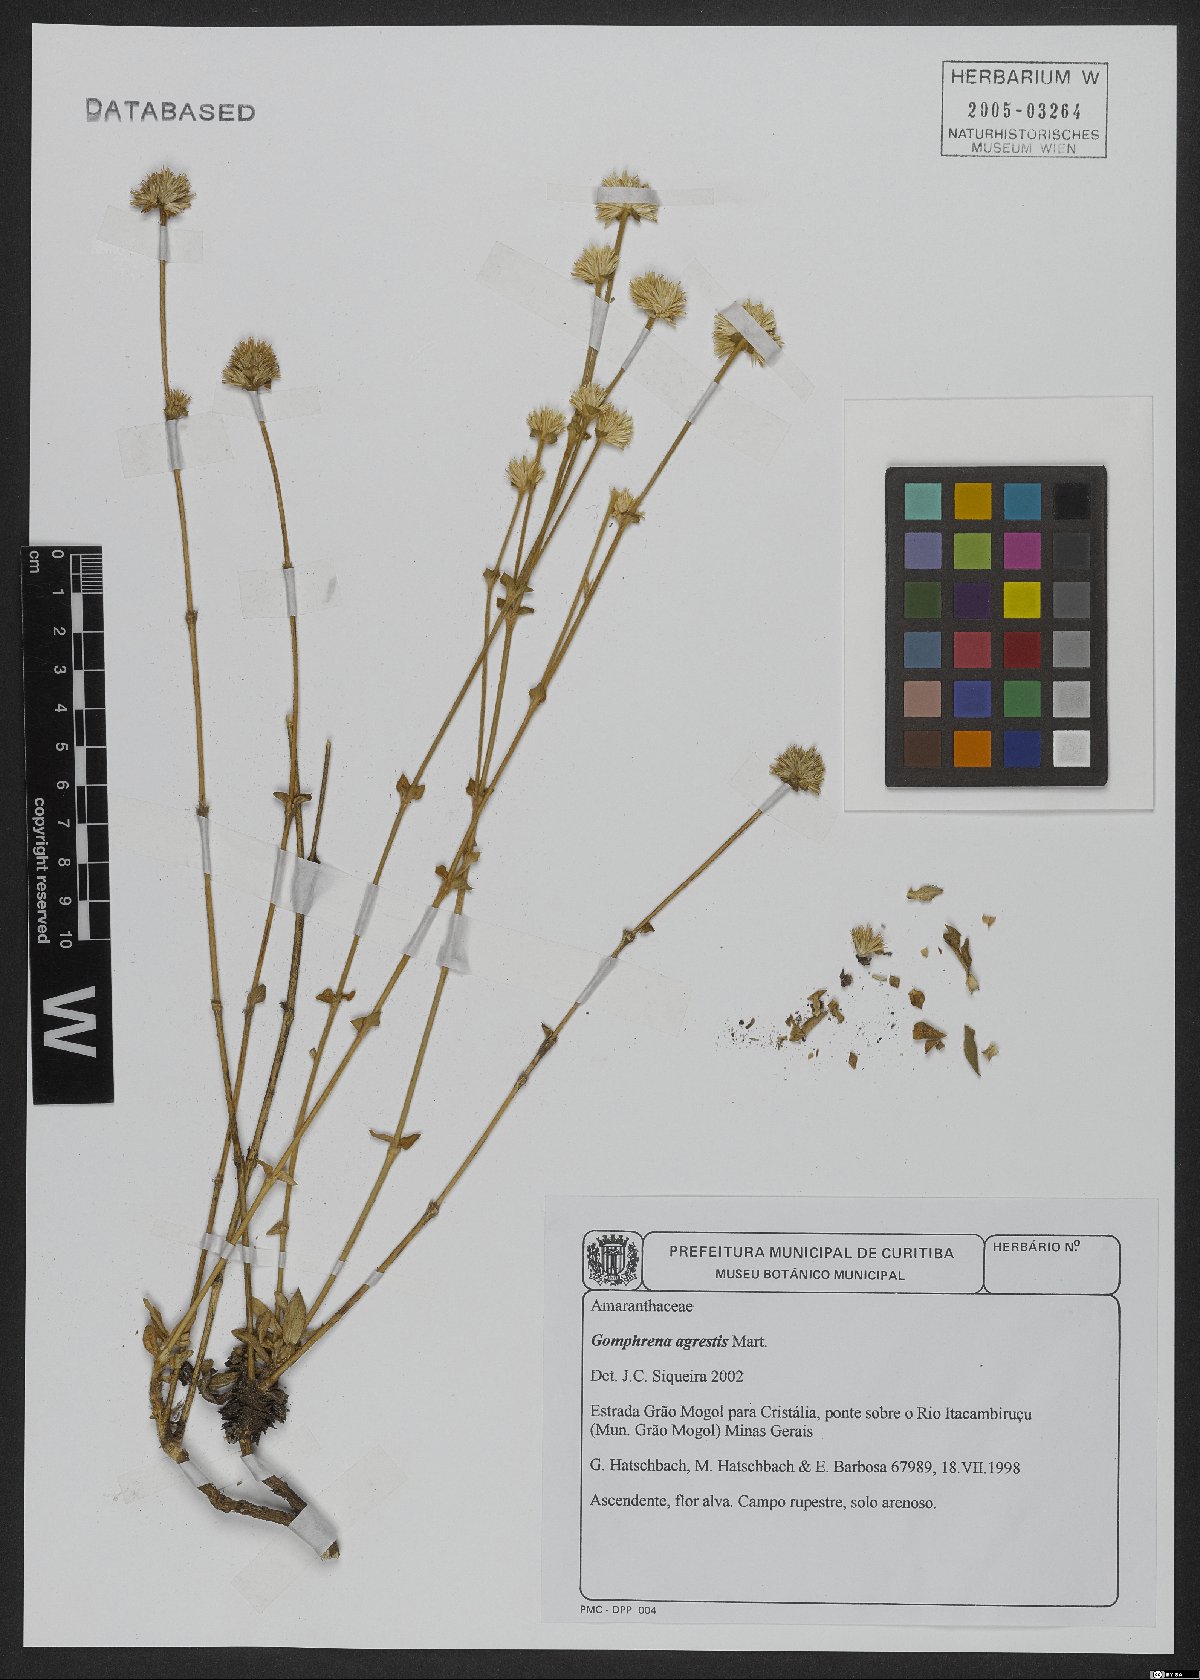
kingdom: Plantae
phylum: Tracheophyta
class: Magnoliopsida
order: Caryophyllales
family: Amaranthaceae
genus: Gomphrena
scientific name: Gomphrena agrestis
